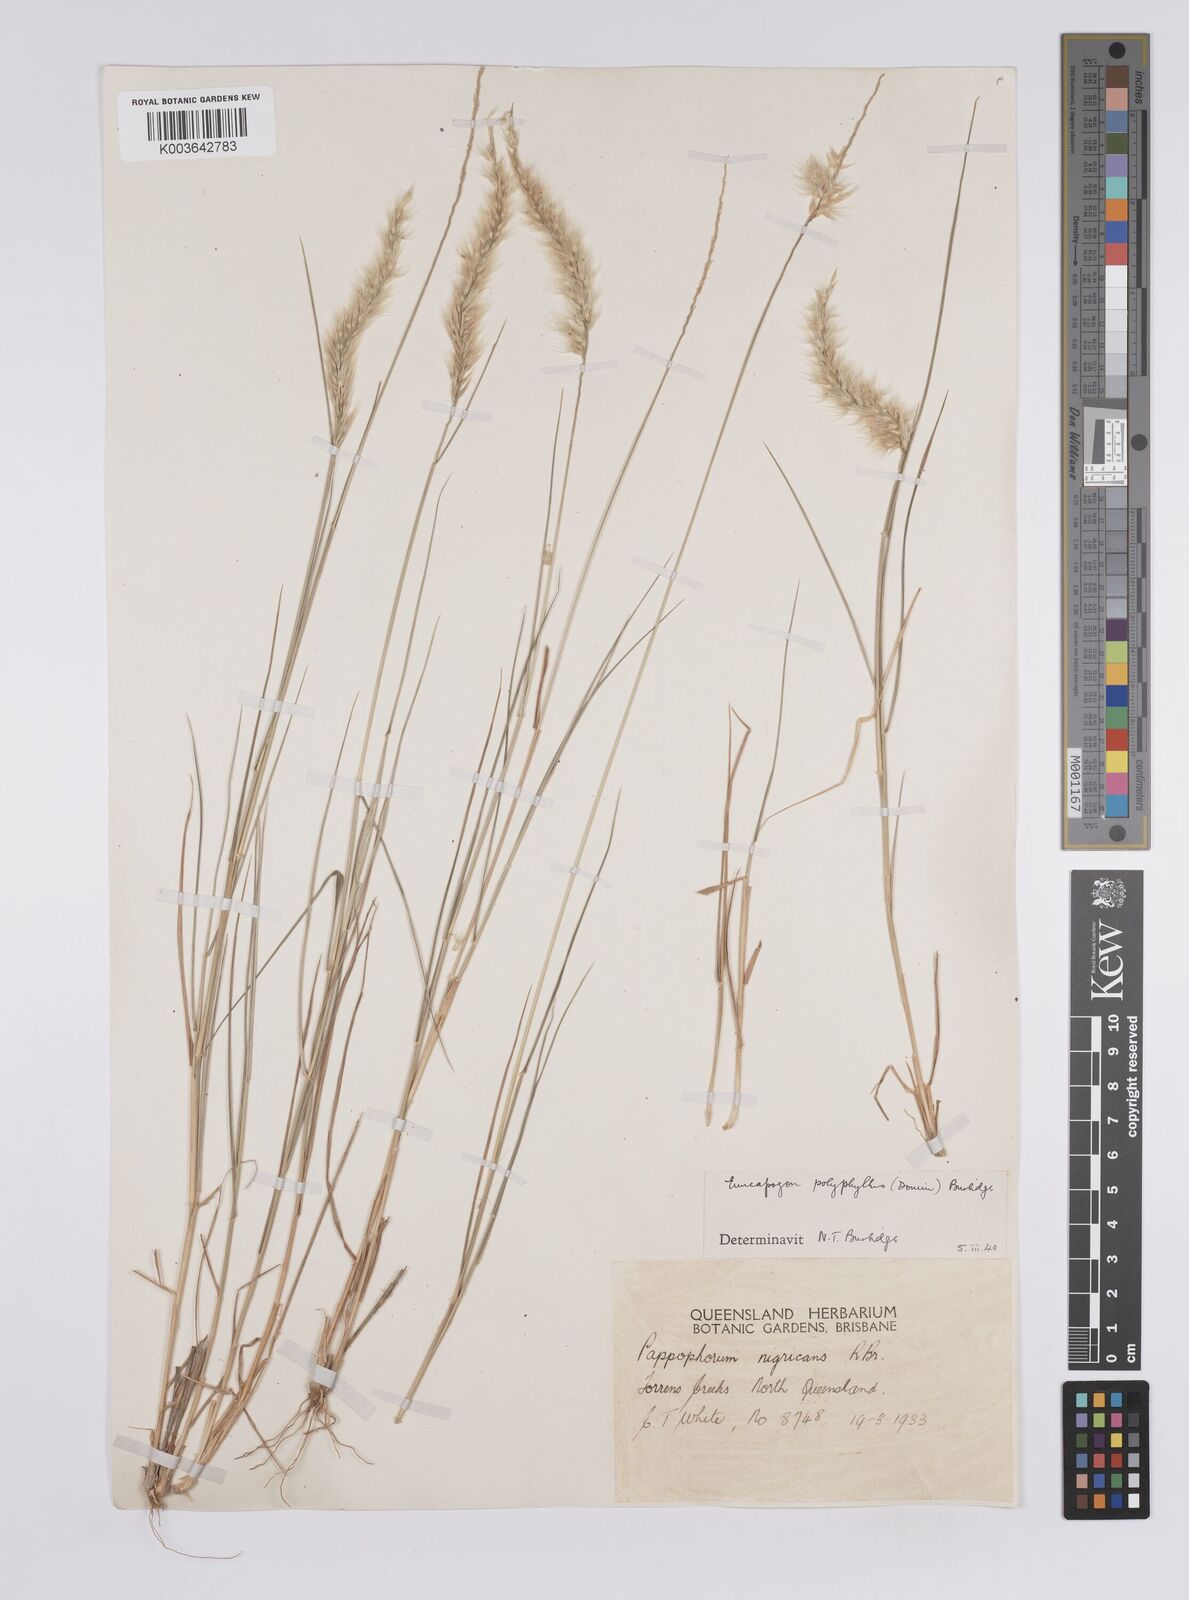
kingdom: Plantae
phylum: Tracheophyta
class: Liliopsida
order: Poales
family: Poaceae
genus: Enneapogon
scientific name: Enneapogon polyphyllus
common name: Leafy nineawn
